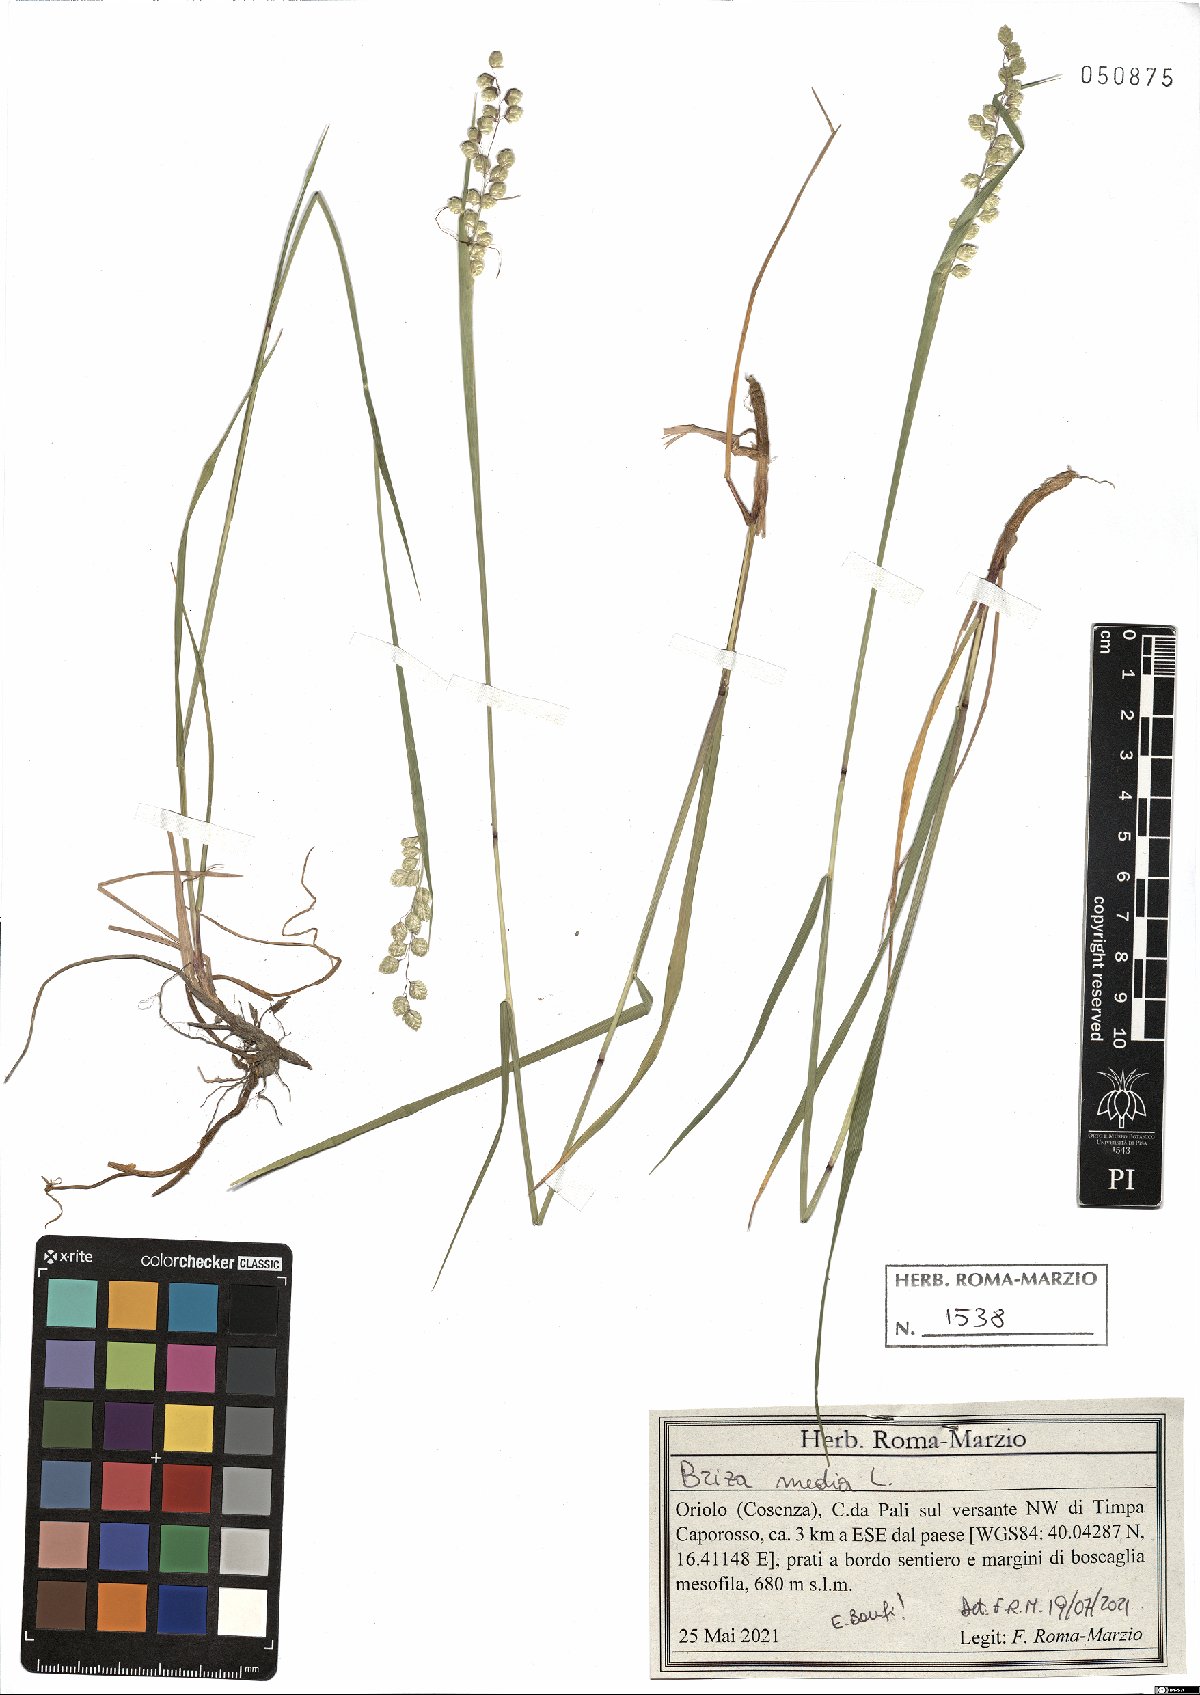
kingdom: Plantae
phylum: Tracheophyta
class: Liliopsida
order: Poales
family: Poaceae
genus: Briza
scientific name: Briza media
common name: Quaking grass
